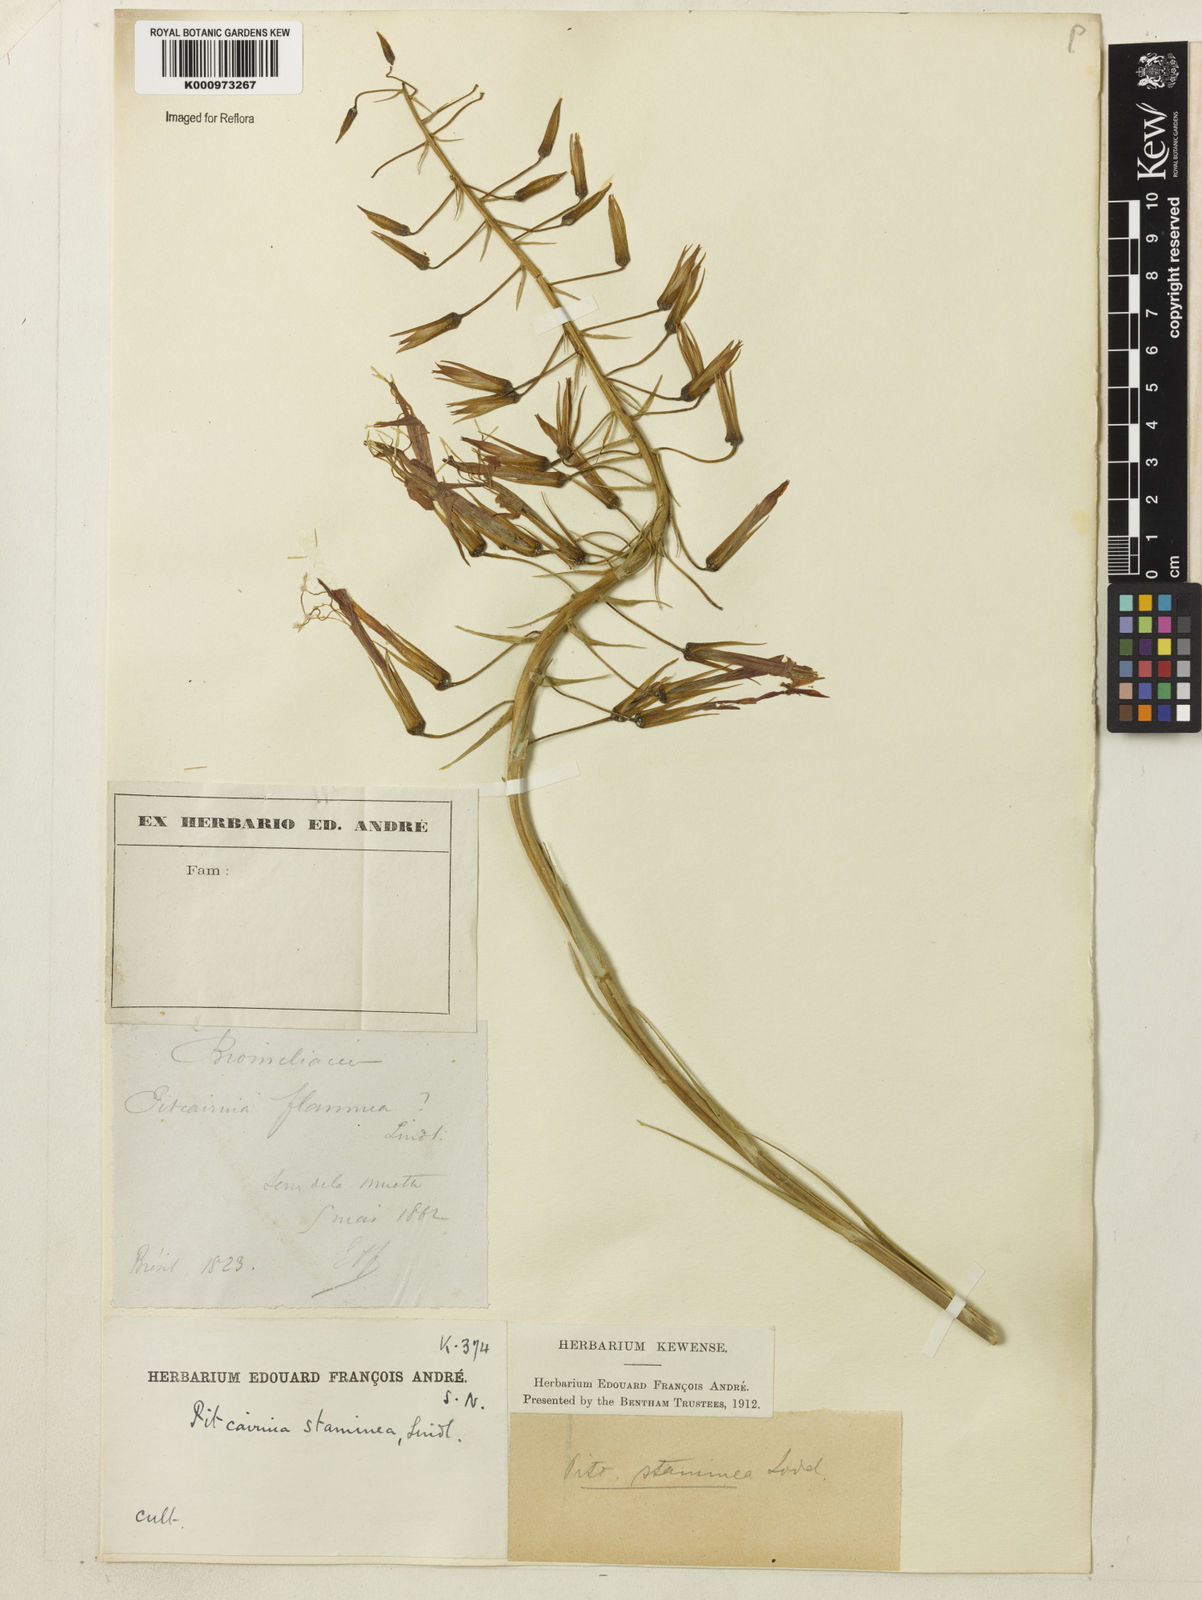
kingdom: Plantae
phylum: Tracheophyta
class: Liliopsida
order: Poales
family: Bromeliaceae
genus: Pitcairnia
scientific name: Pitcairnia staminea
